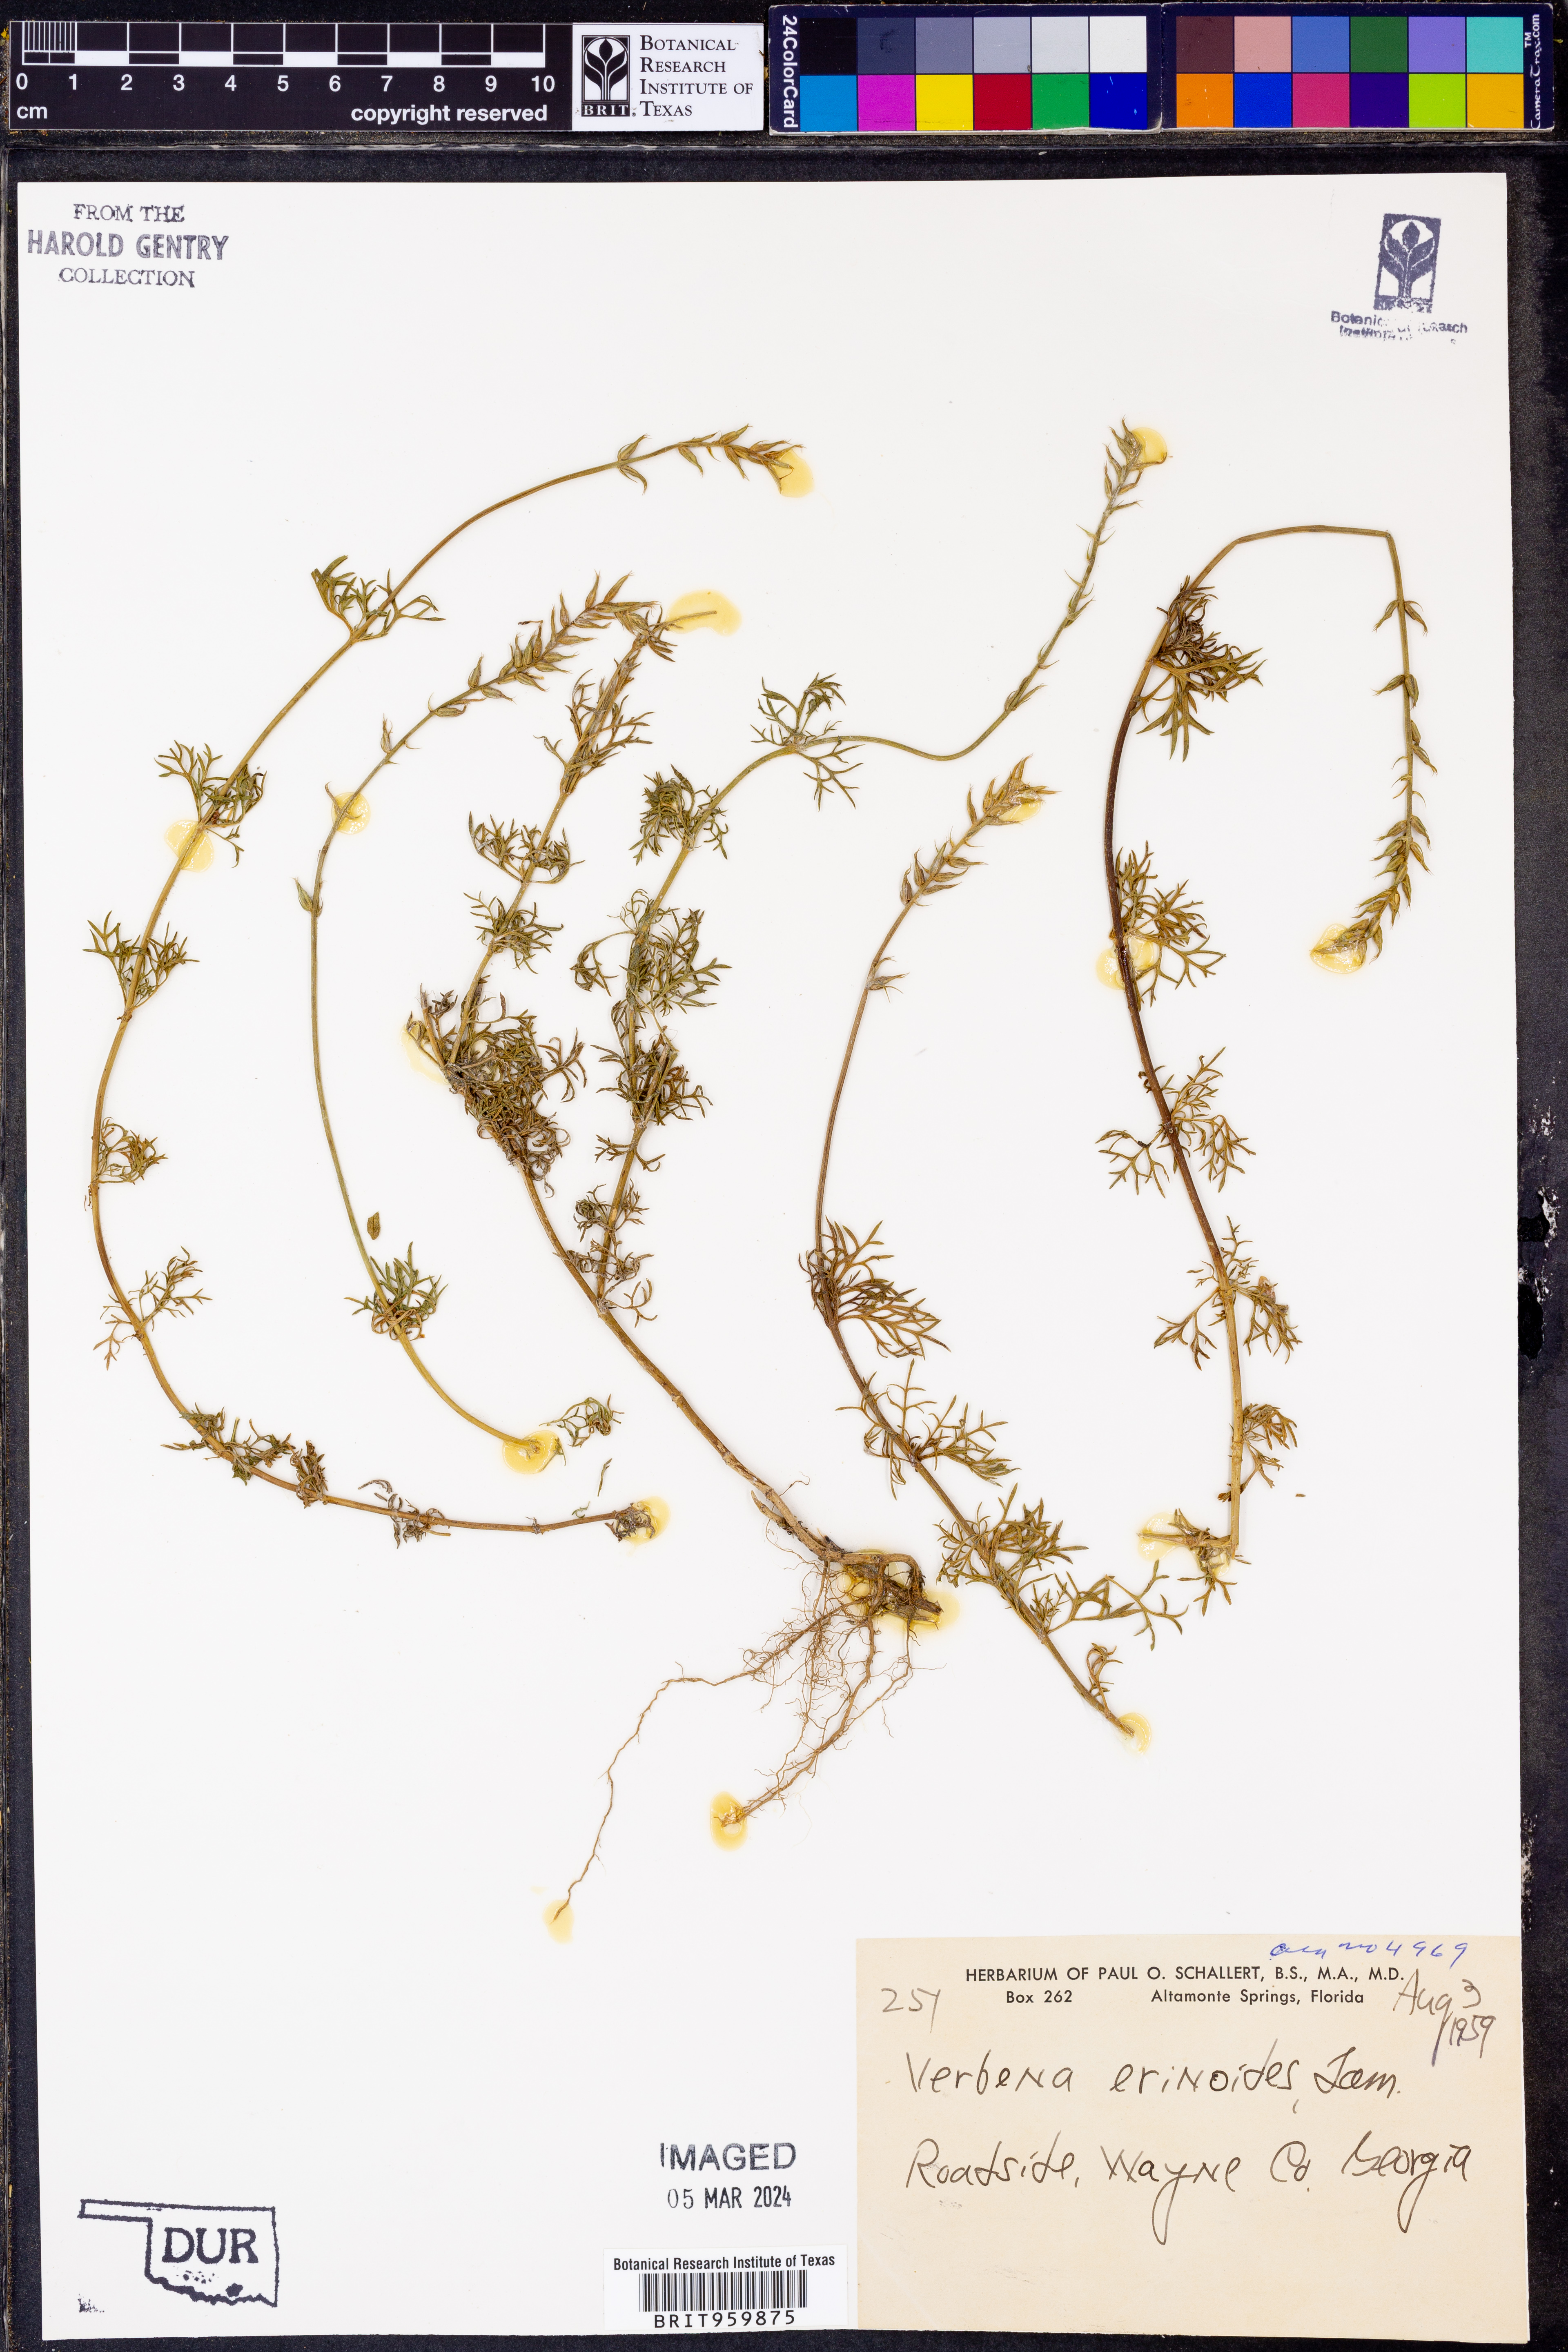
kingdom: Plantae
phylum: Tracheophyta
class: Magnoliopsida
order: Lamiales
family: Verbenaceae
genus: Verbena
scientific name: Verbena tenera
